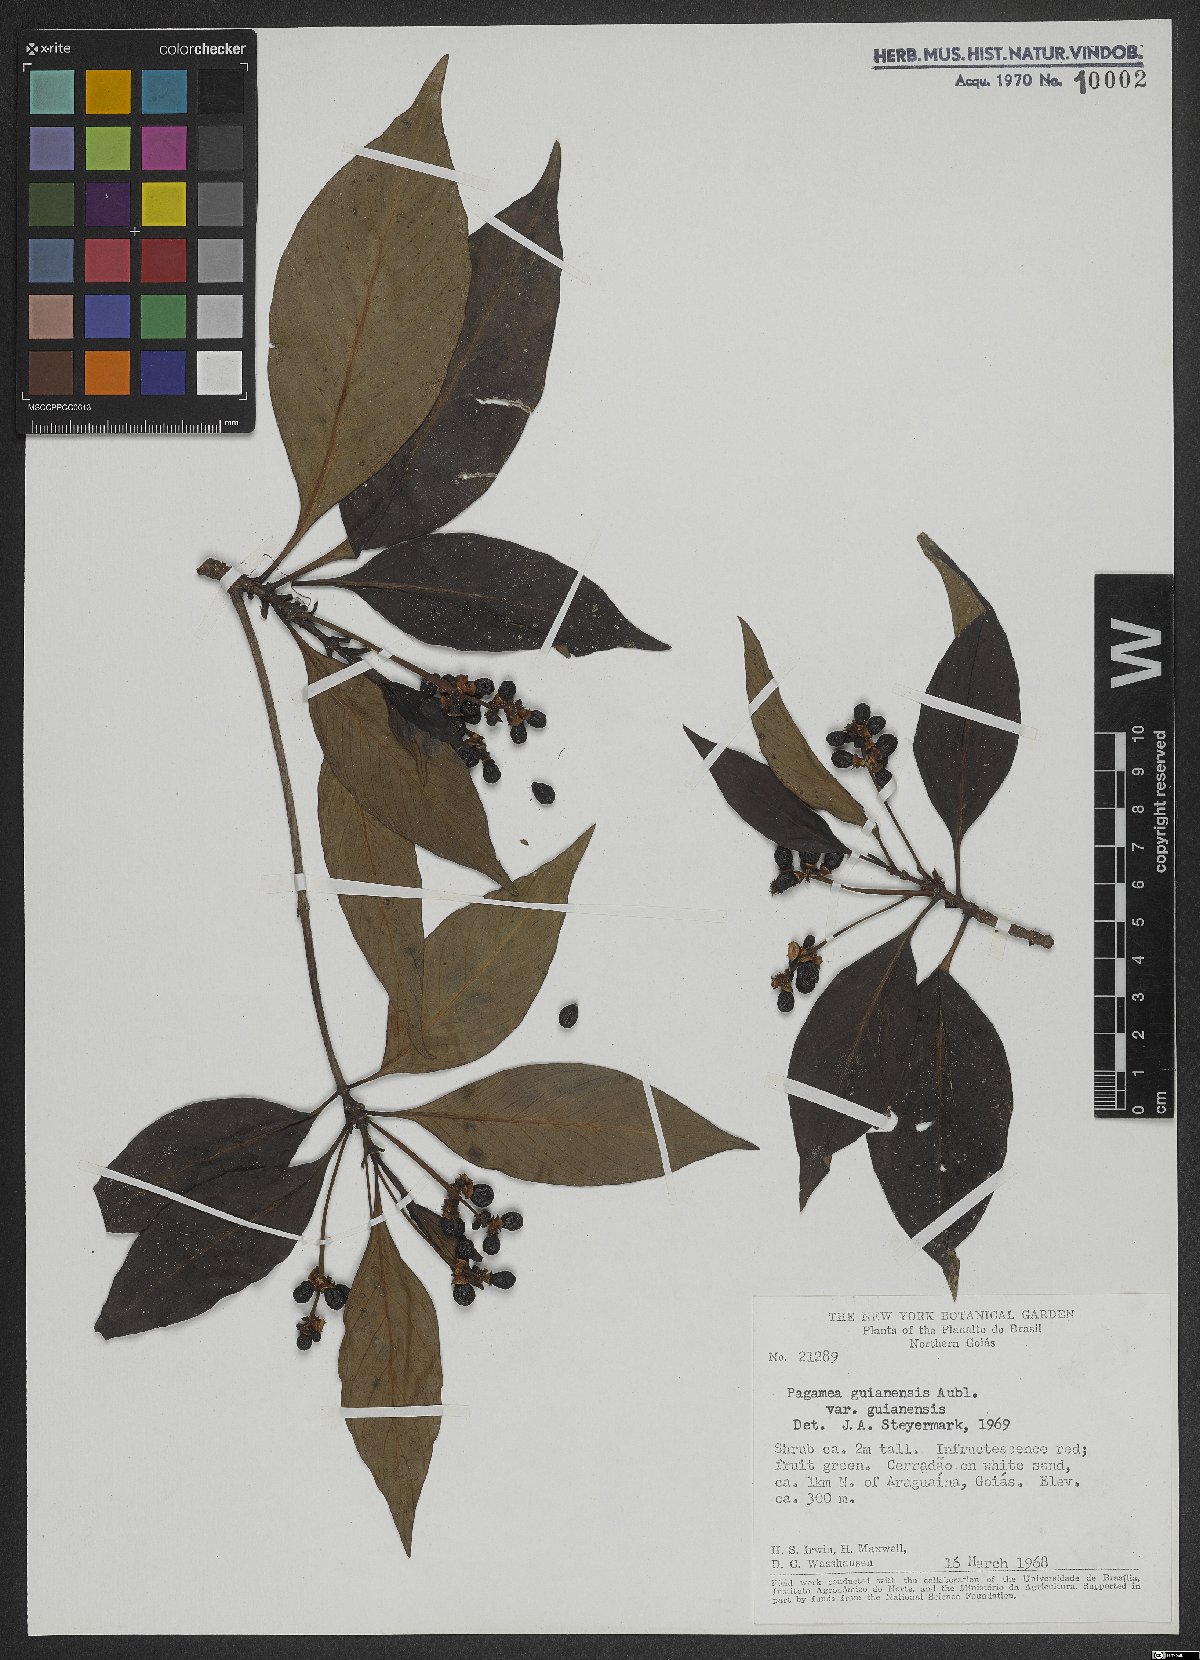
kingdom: Plantae
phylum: Tracheophyta
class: Magnoliopsida
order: Gentianales
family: Rubiaceae
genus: Pagamea
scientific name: Pagamea guianensis
